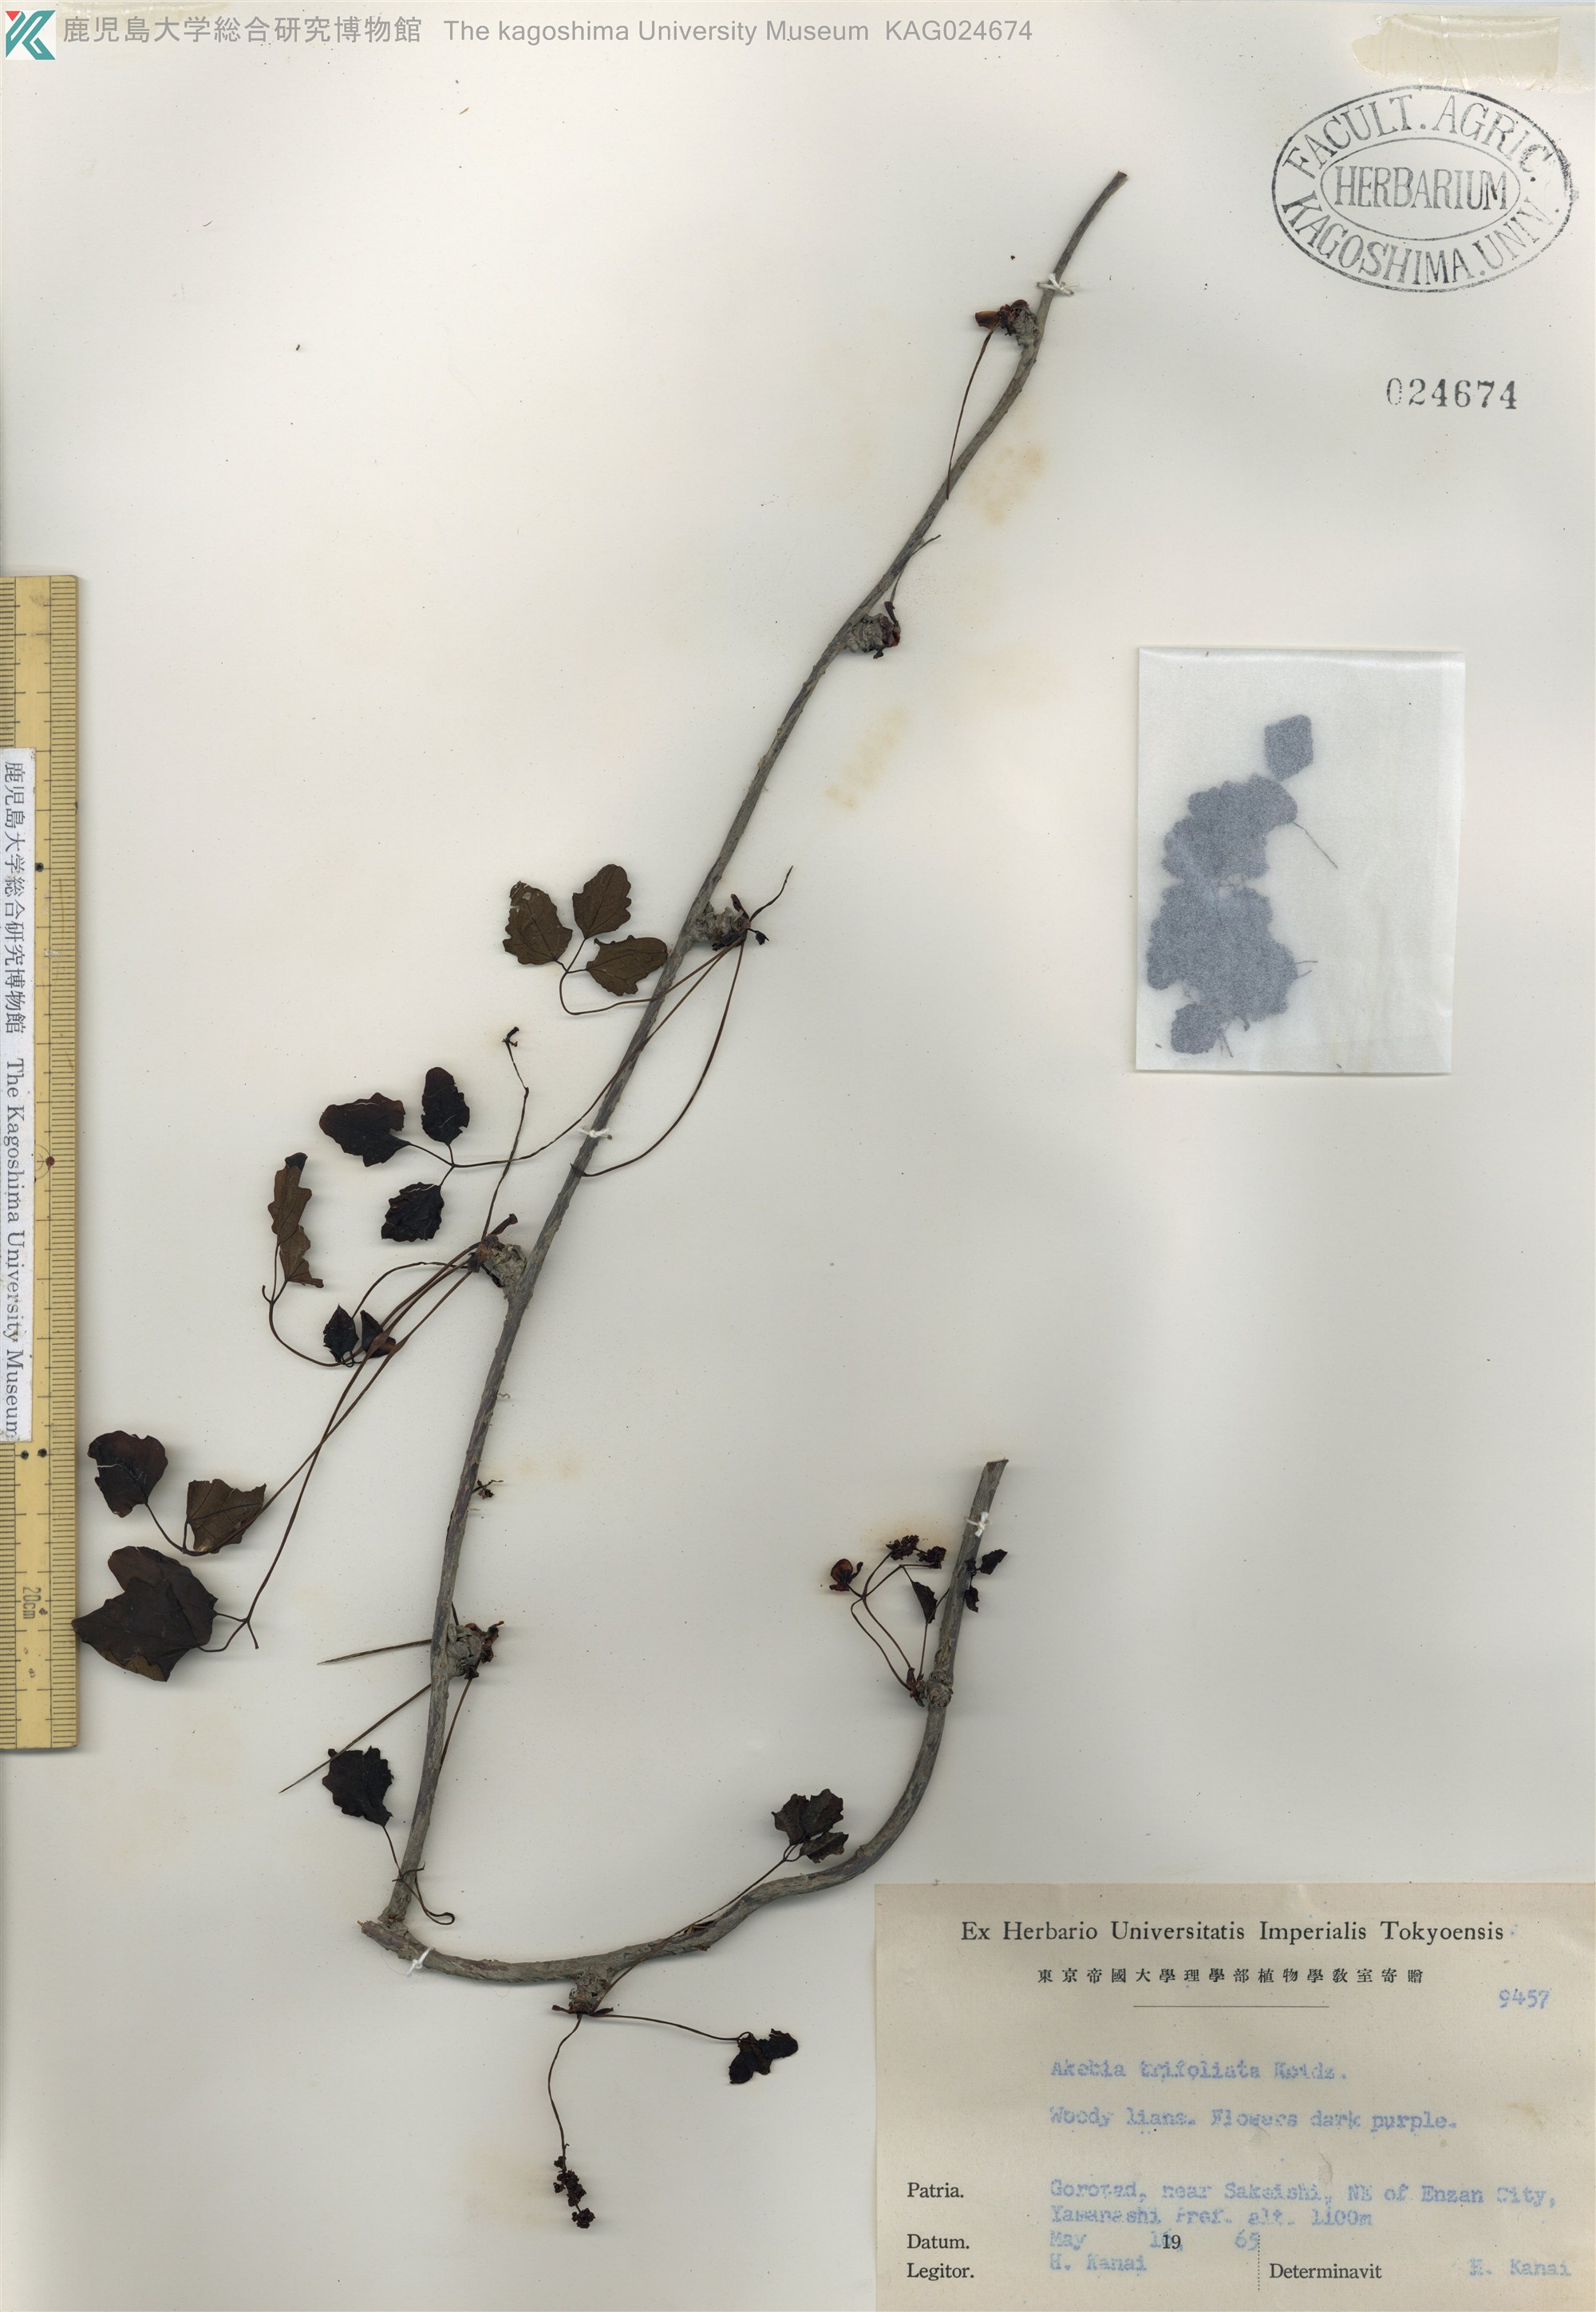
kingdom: Plantae
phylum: Tracheophyta
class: Magnoliopsida
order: Ranunculales
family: Lardizabalaceae
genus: Akebia
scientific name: Akebia trifoliata
